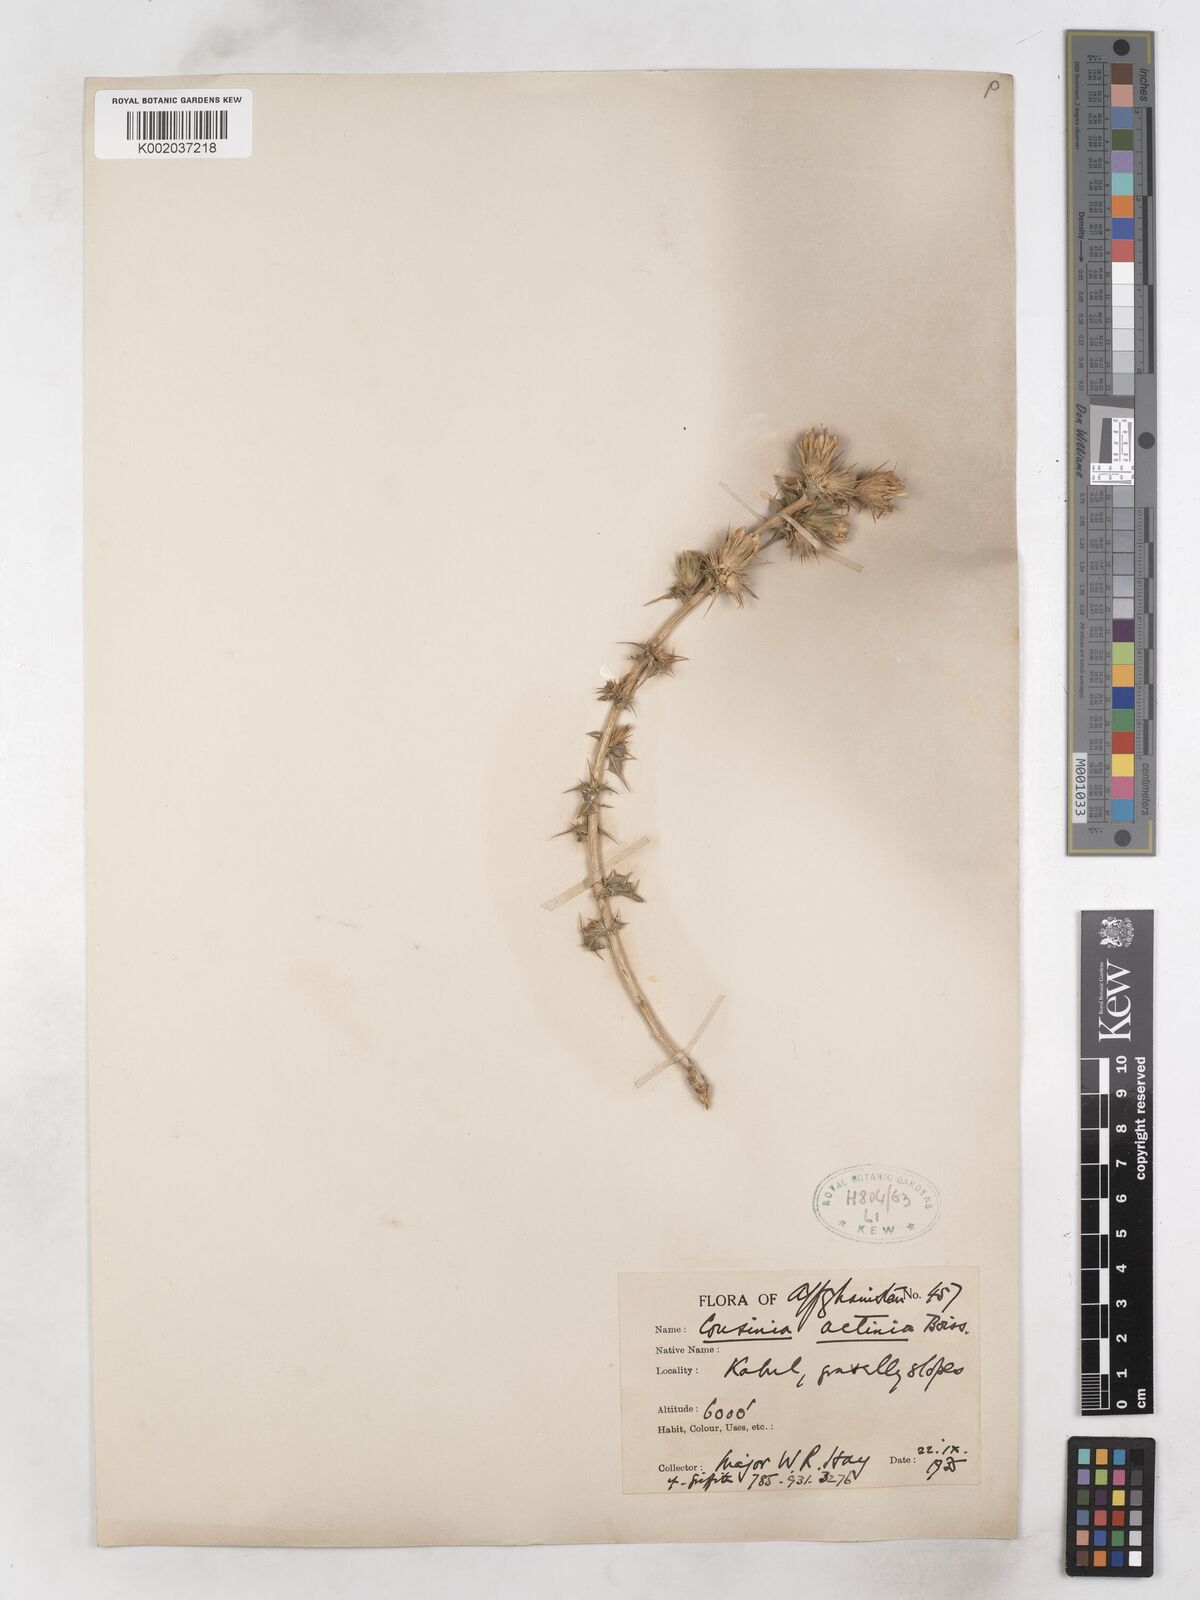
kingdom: Plantae
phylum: Tracheophyta
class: Magnoliopsida
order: Asterales
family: Asteraceae
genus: Cousinia
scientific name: Cousinia actinia
